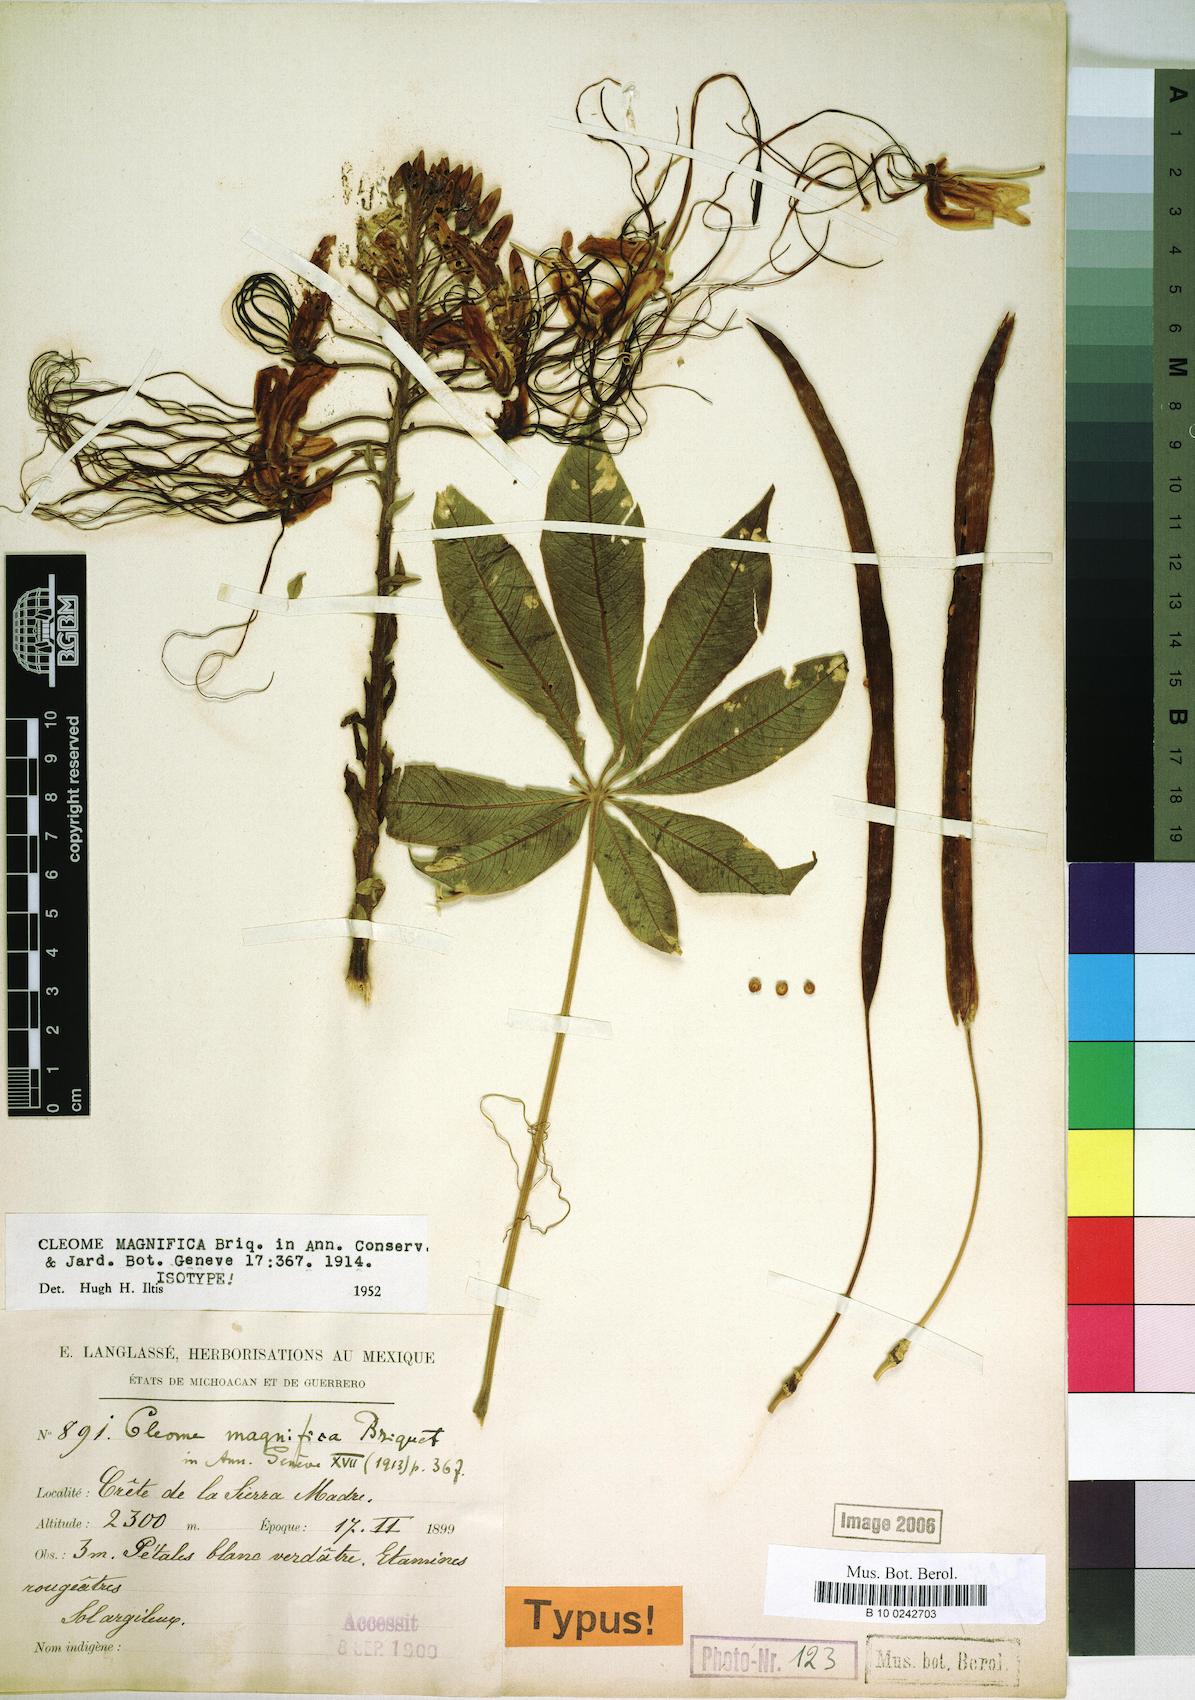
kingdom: Plantae
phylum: Tracheophyta
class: Magnoliopsida
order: Brassicales
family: Cleomaceae
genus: Andinocleome
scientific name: Andinocleome magnifica
